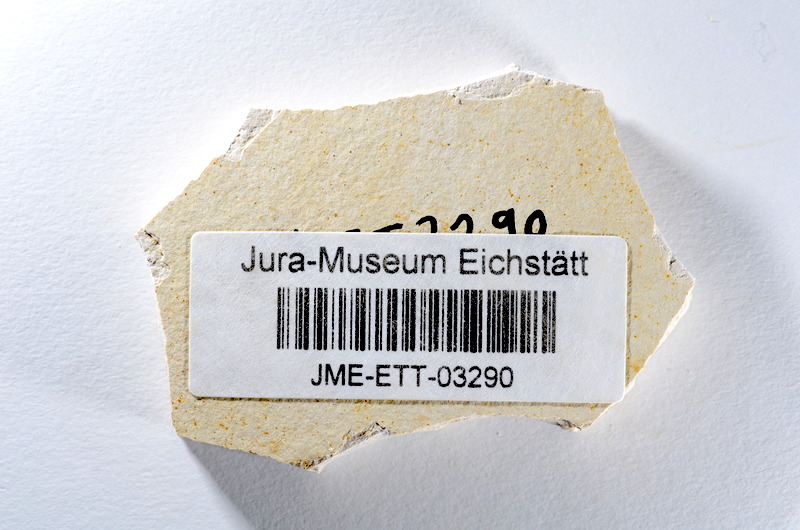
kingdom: Animalia
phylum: Chordata
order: Salmoniformes
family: Orthogonikleithridae
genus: Orthogonikleithrus
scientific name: Orthogonikleithrus hoelli
